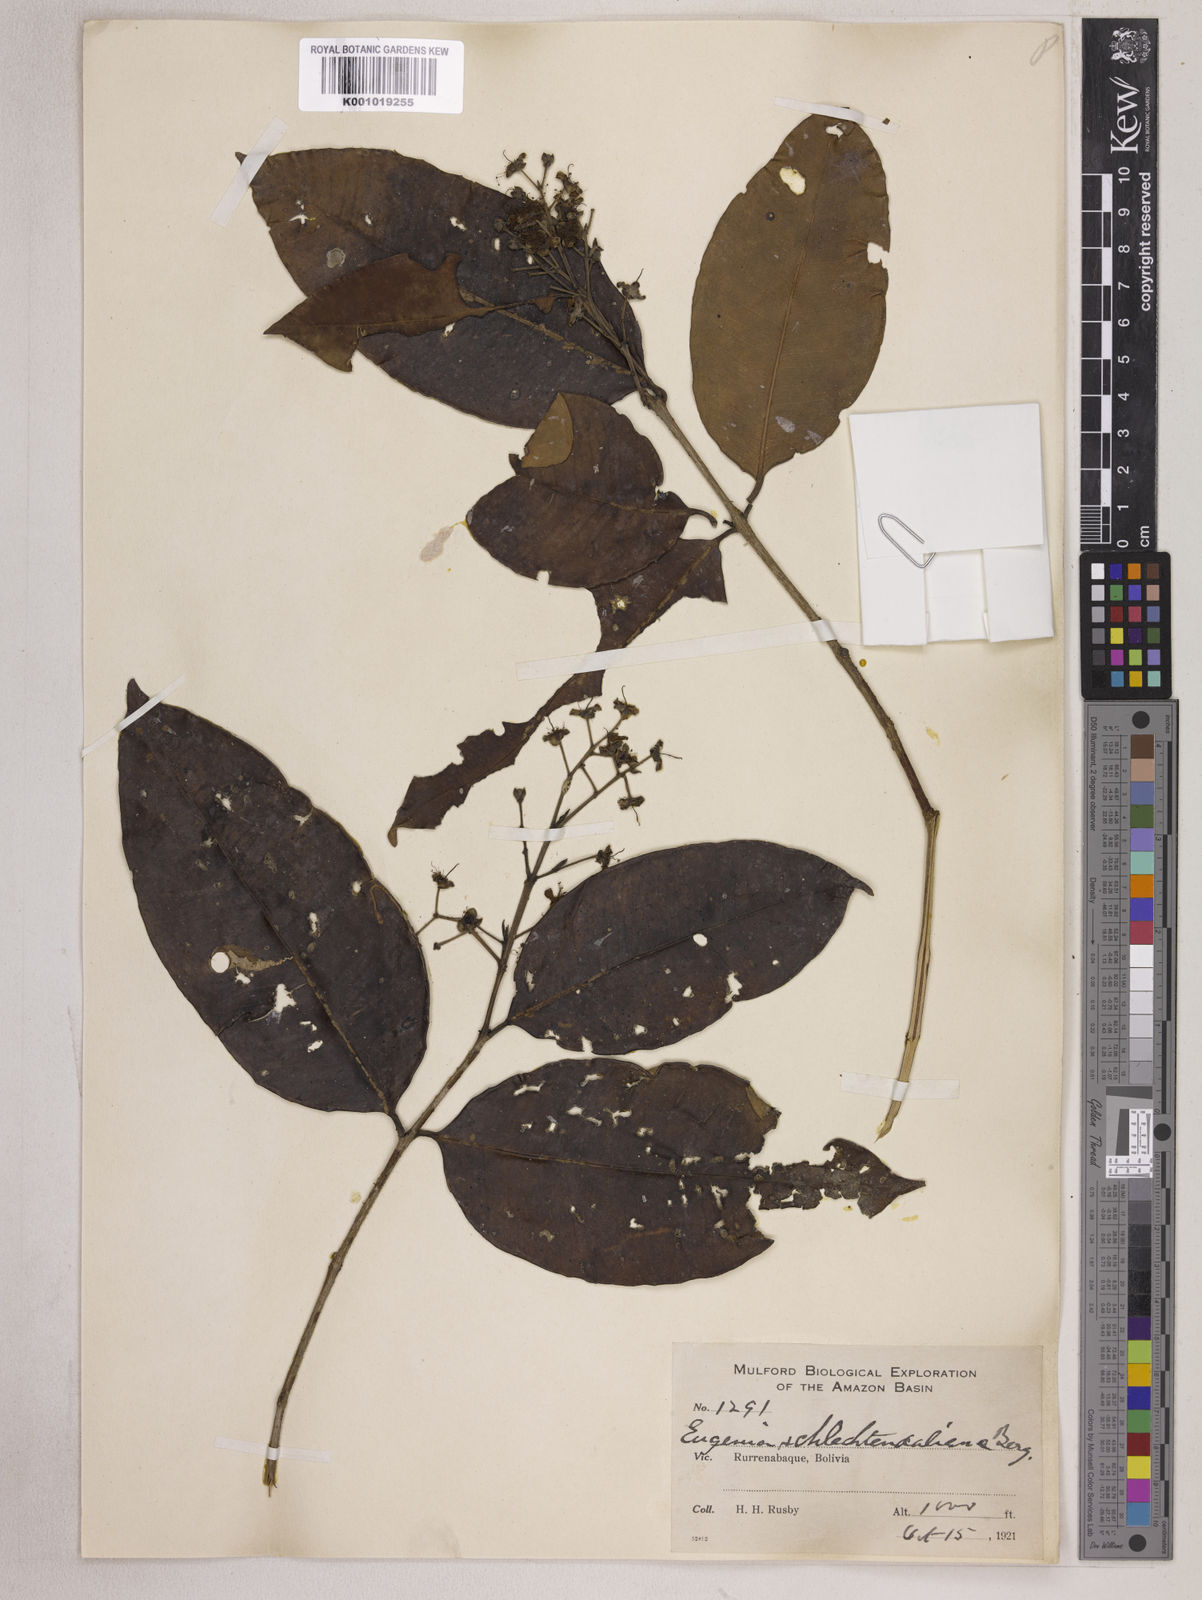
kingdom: Plantae
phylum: Tracheophyta
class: Magnoliopsida
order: Myrtales
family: Myrtaceae
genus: Eugenia
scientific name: Eugenia patens
